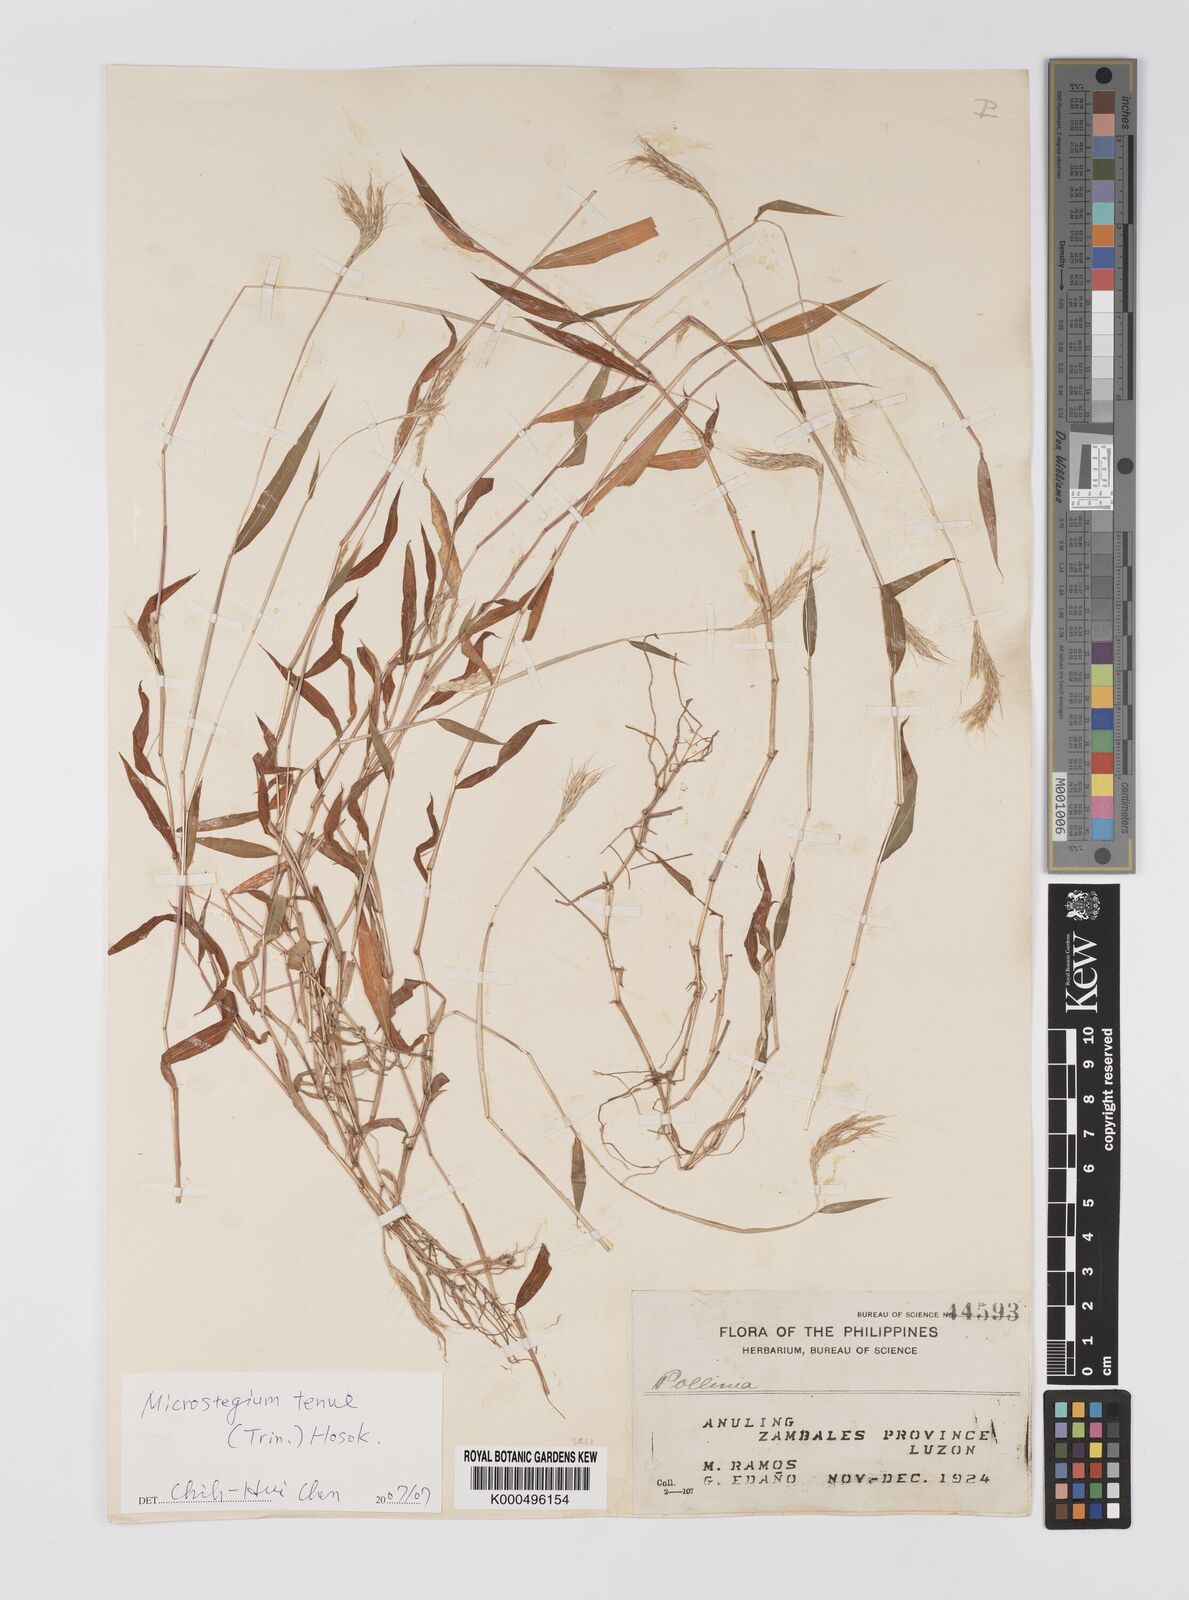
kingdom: Plantae
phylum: Tracheophyta
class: Liliopsida
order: Poales
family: Poaceae
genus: Microstegium
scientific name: Microstegium tenue
